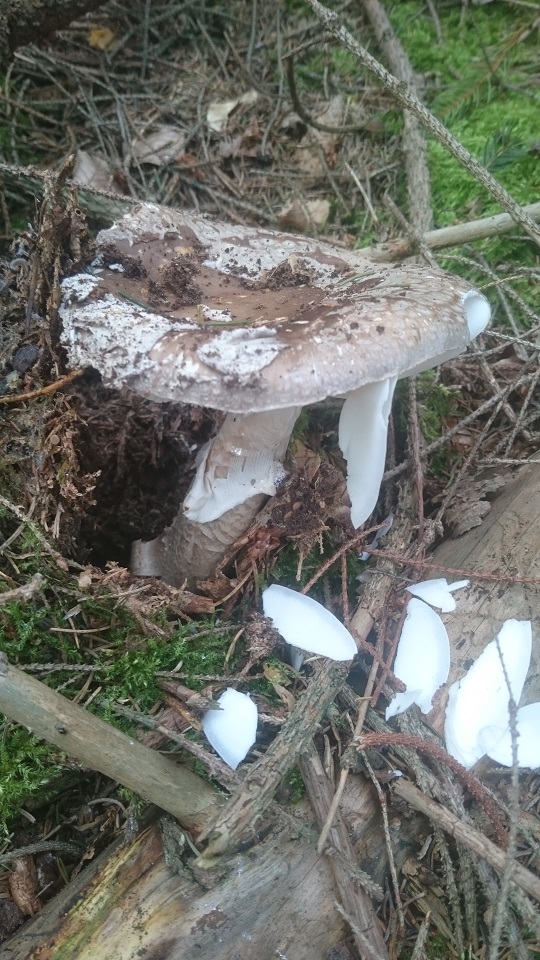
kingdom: Fungi
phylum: Basidiomycota
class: Agaricomycetes
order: Agaricales
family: Amanitaceae
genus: Amanita
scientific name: Amanita
